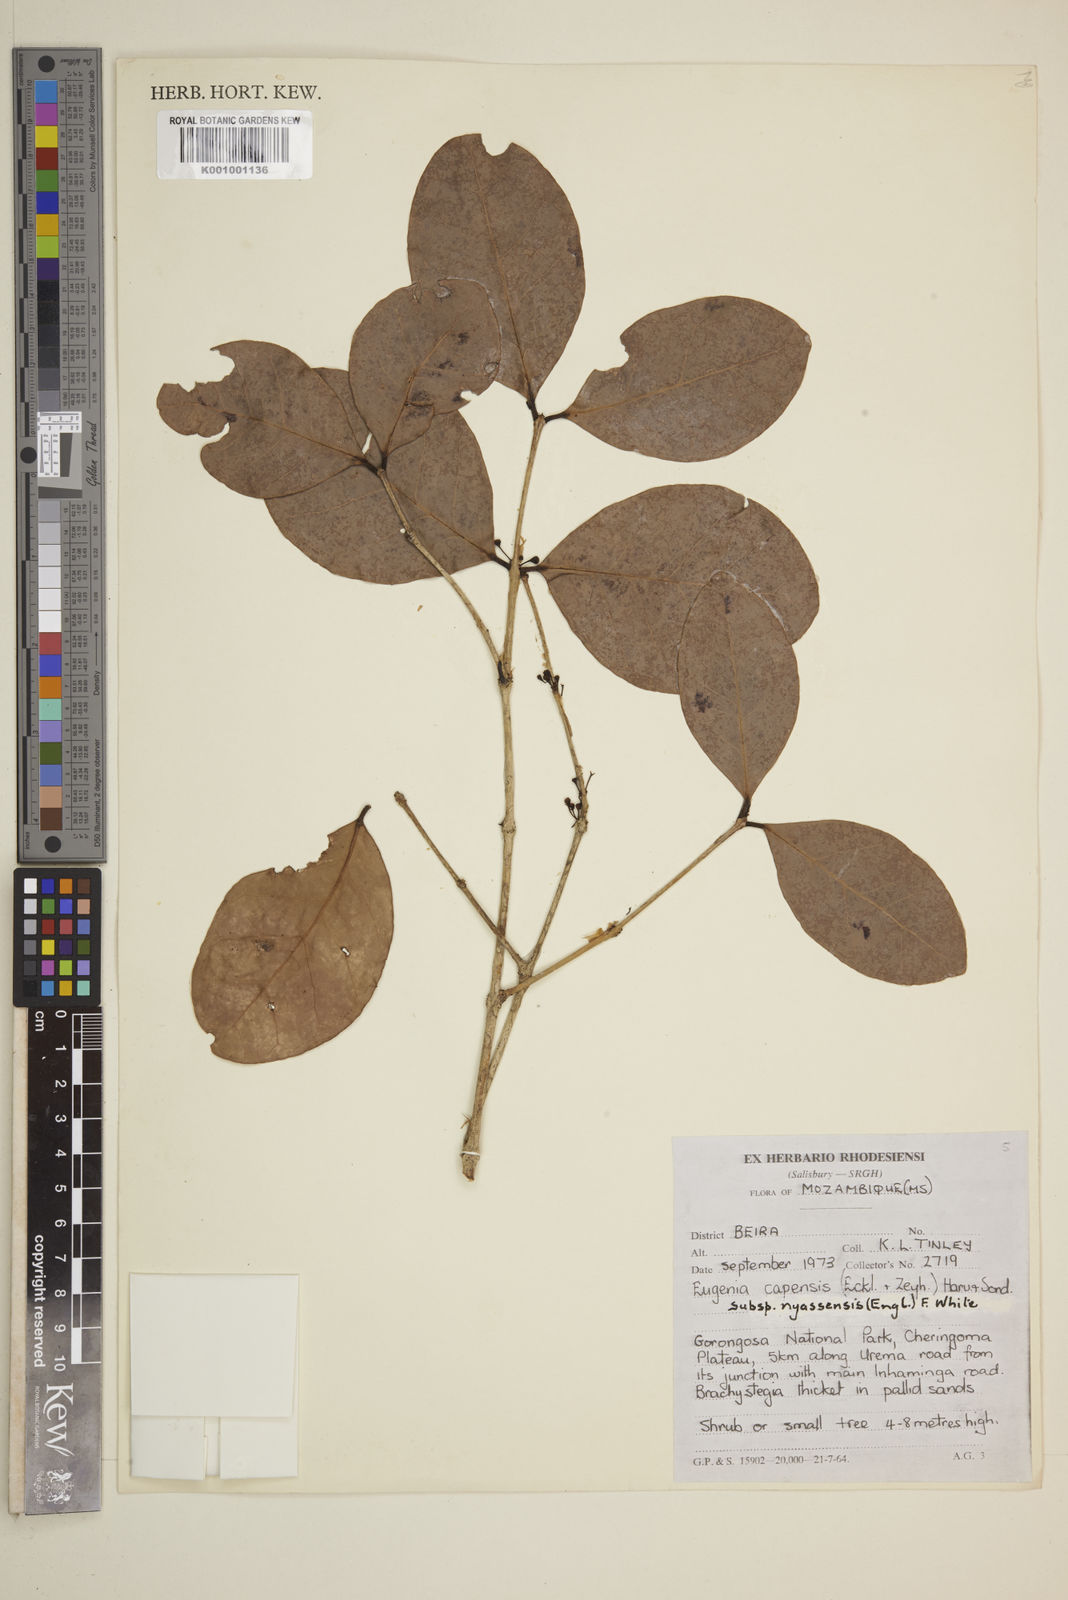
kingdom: Plantae
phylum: Tracheophyta
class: Magnoliopsida
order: Myrtales
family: Myrtaceae
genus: Eugenia
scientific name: Eugenia capensis
